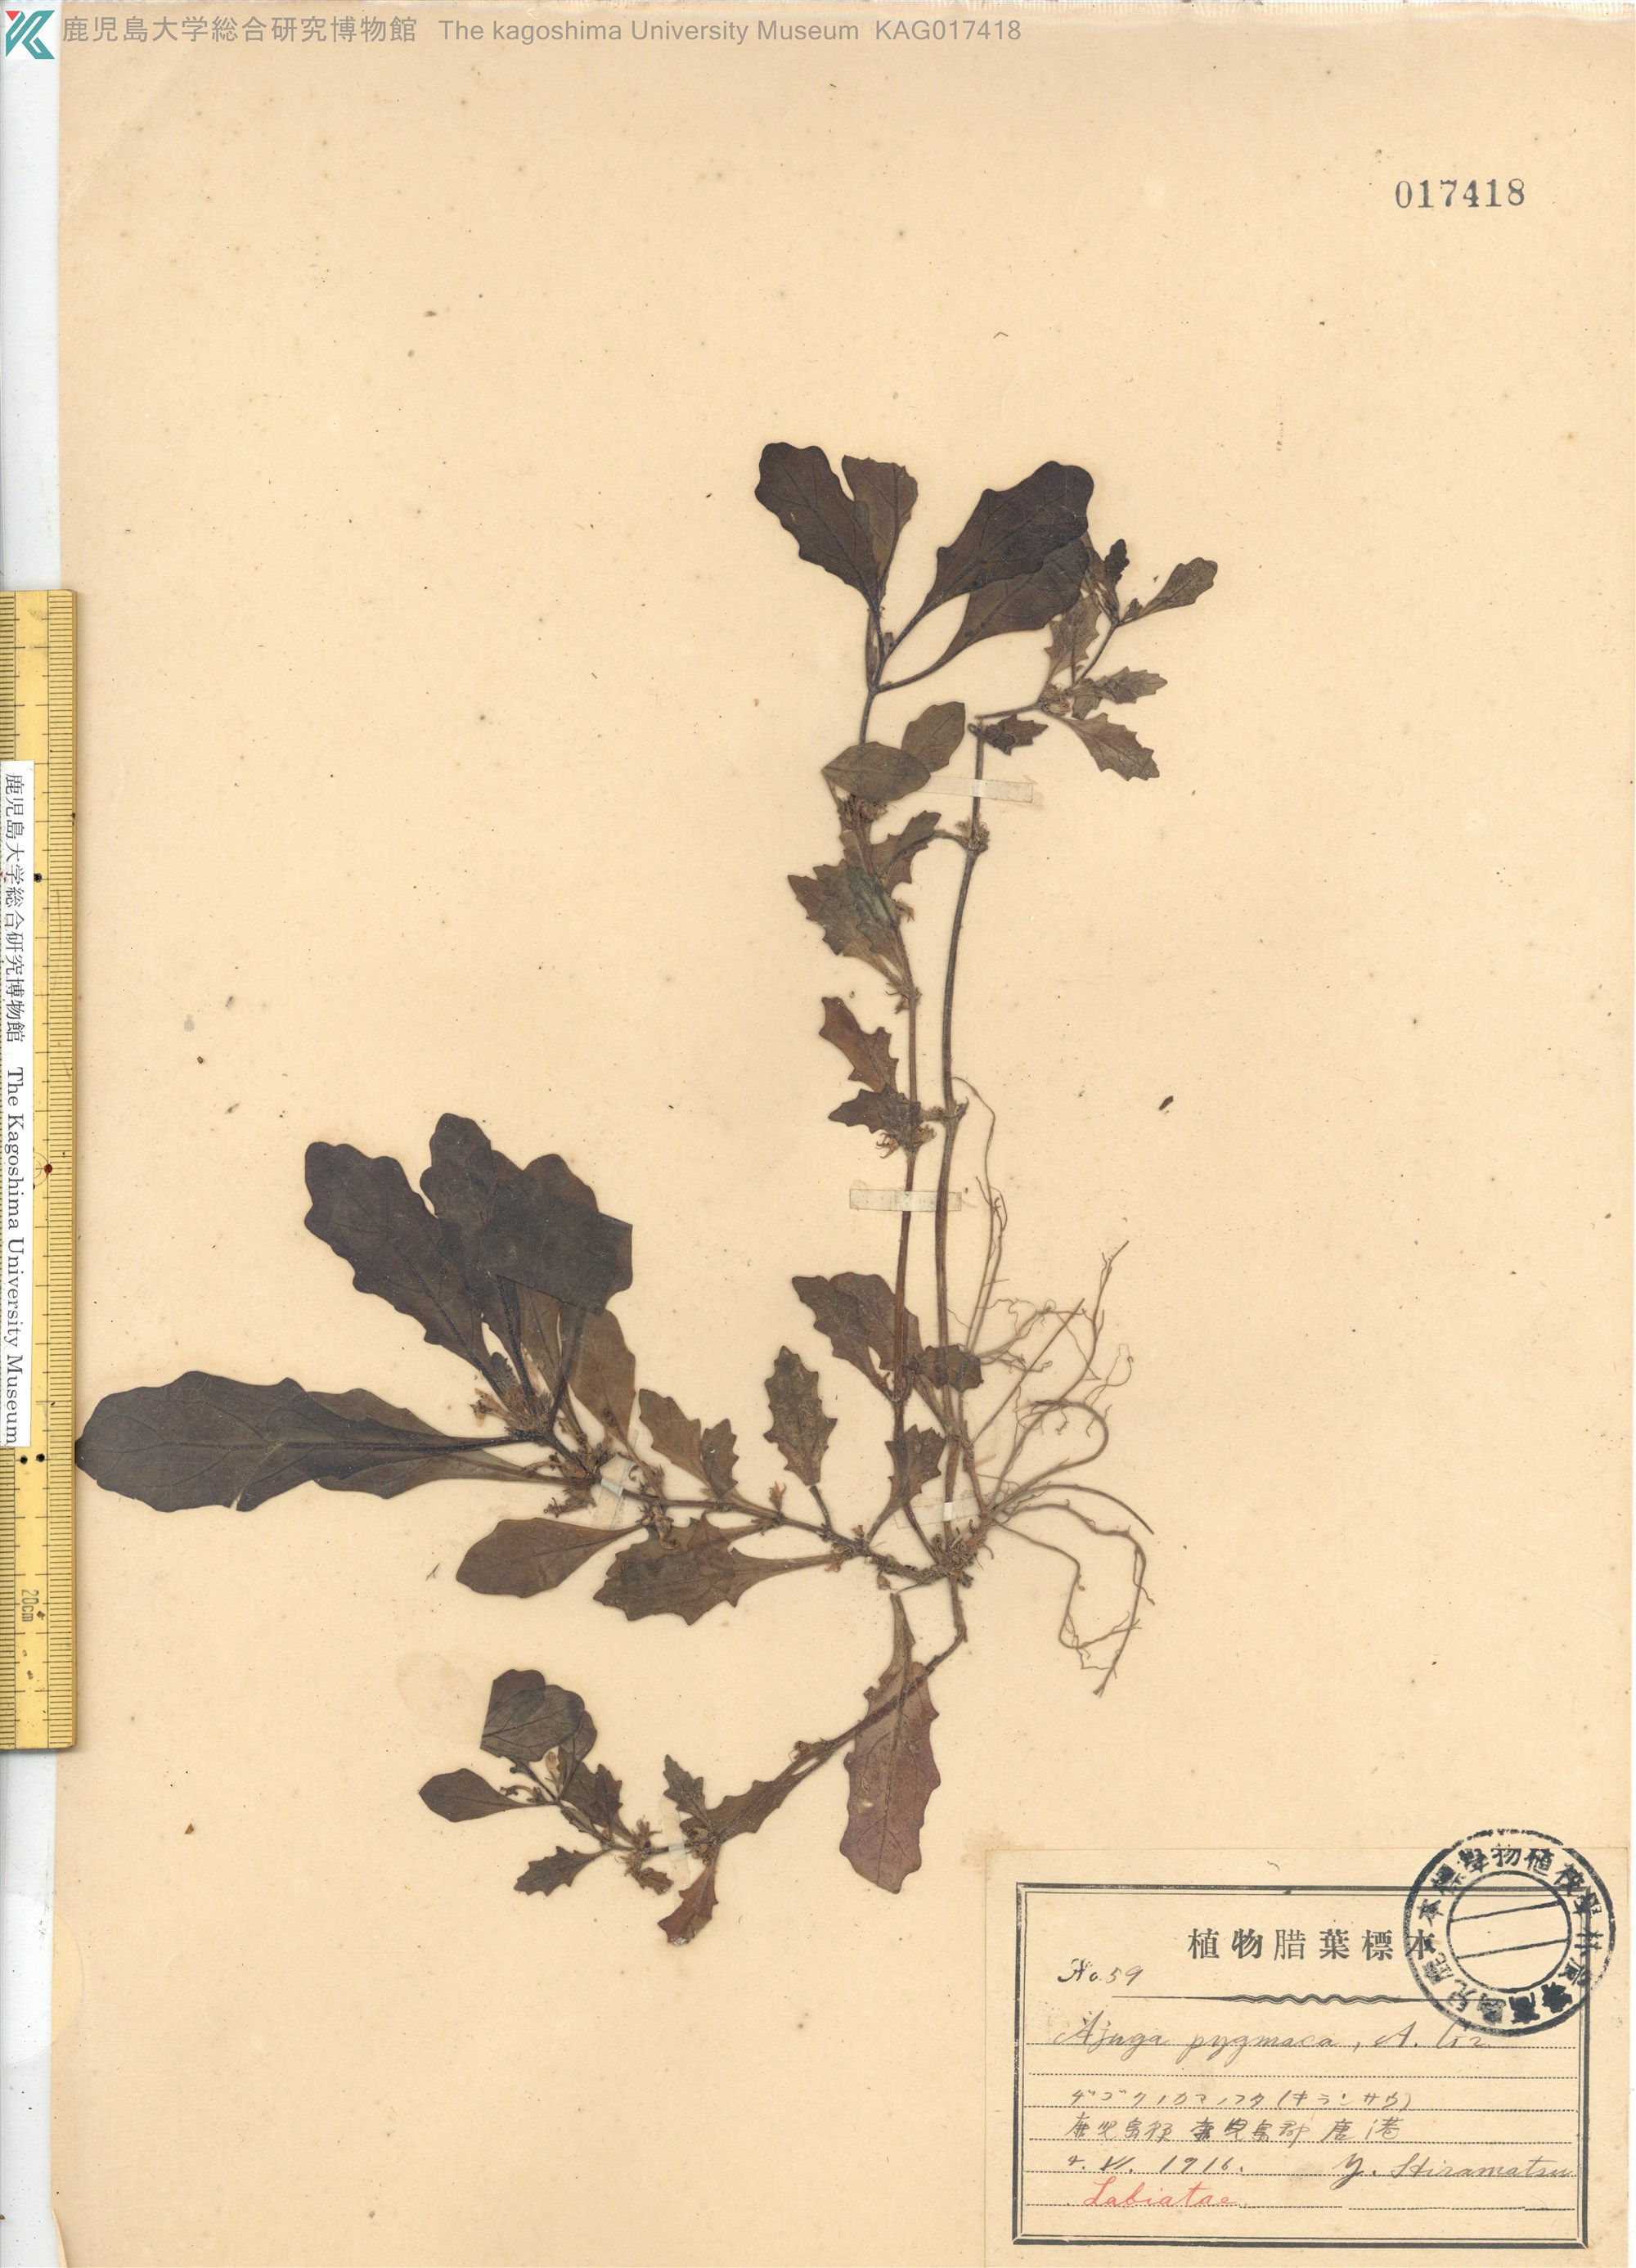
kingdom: Plantae
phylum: Tracheophyta
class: Magnoliopsida
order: Lamiales
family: Lamiaceae
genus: Ajuga
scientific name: Ajuga decumbens
